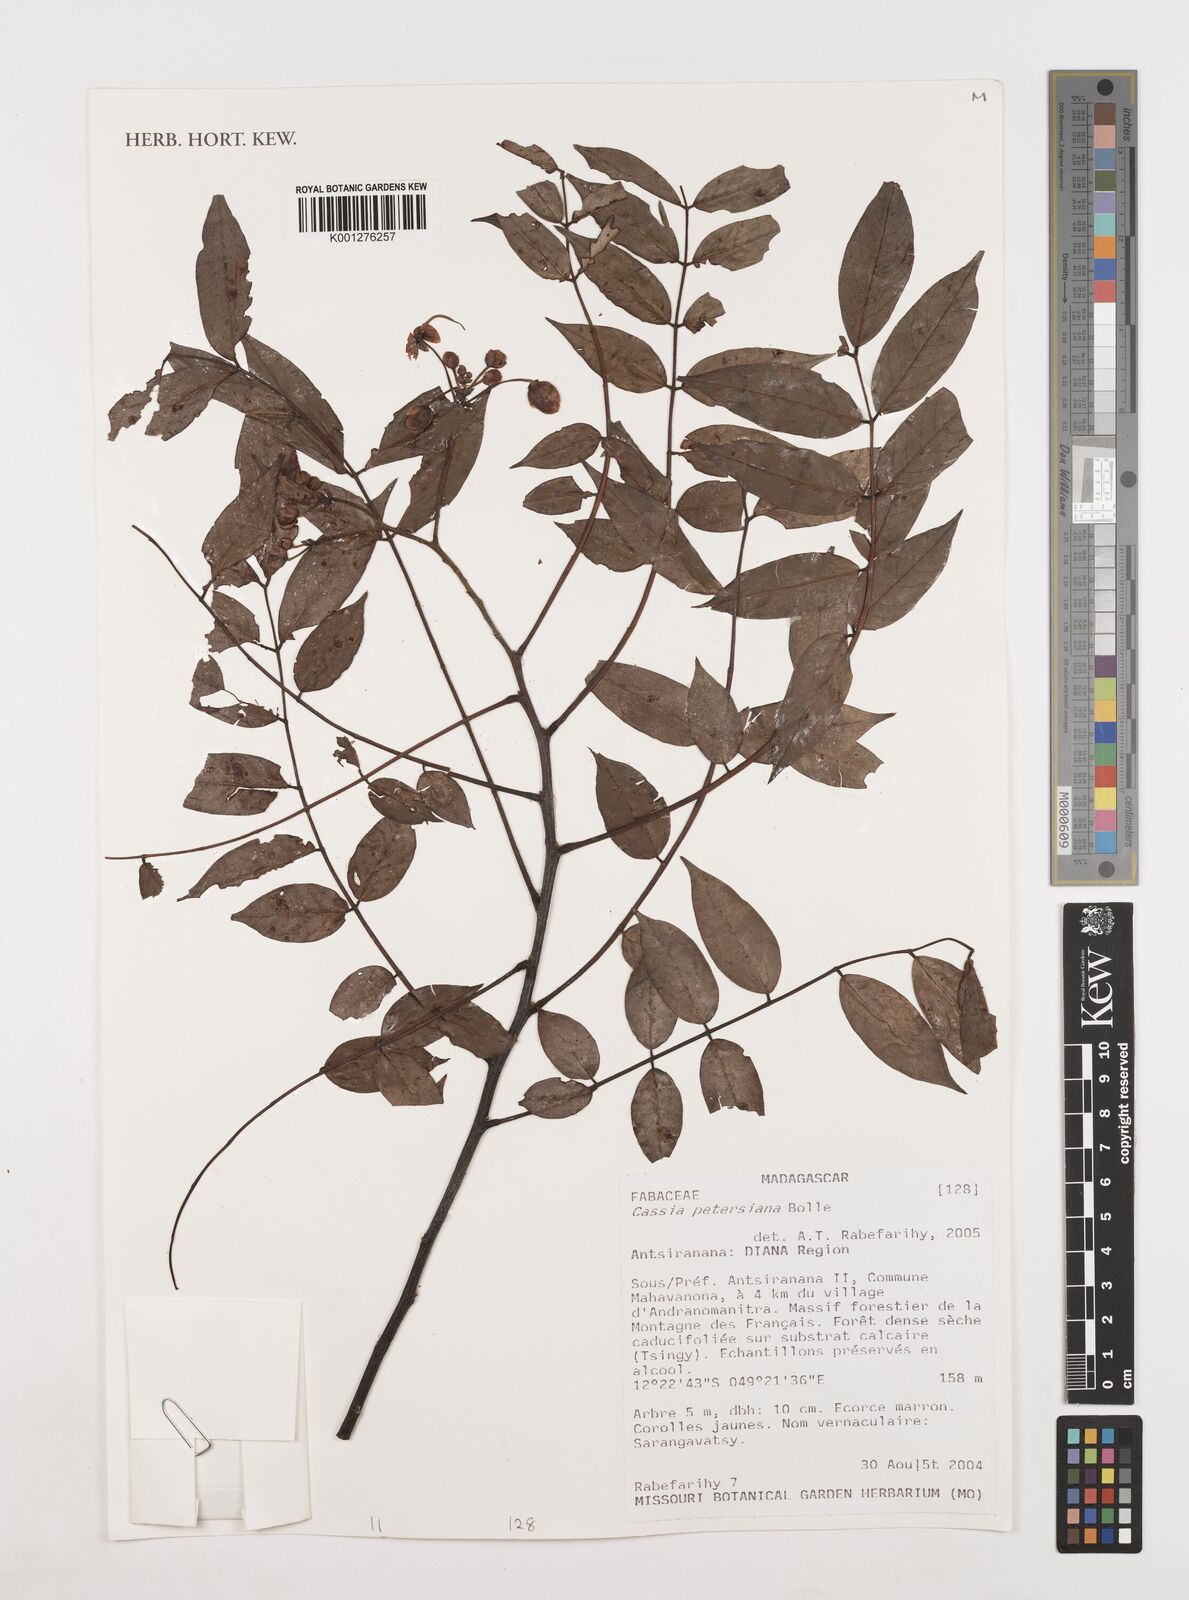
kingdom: Plantae
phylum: Tracheophyta
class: Magnoliopsida
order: Fabales
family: Fabaceae
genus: Senna
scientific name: Senna petersiana
